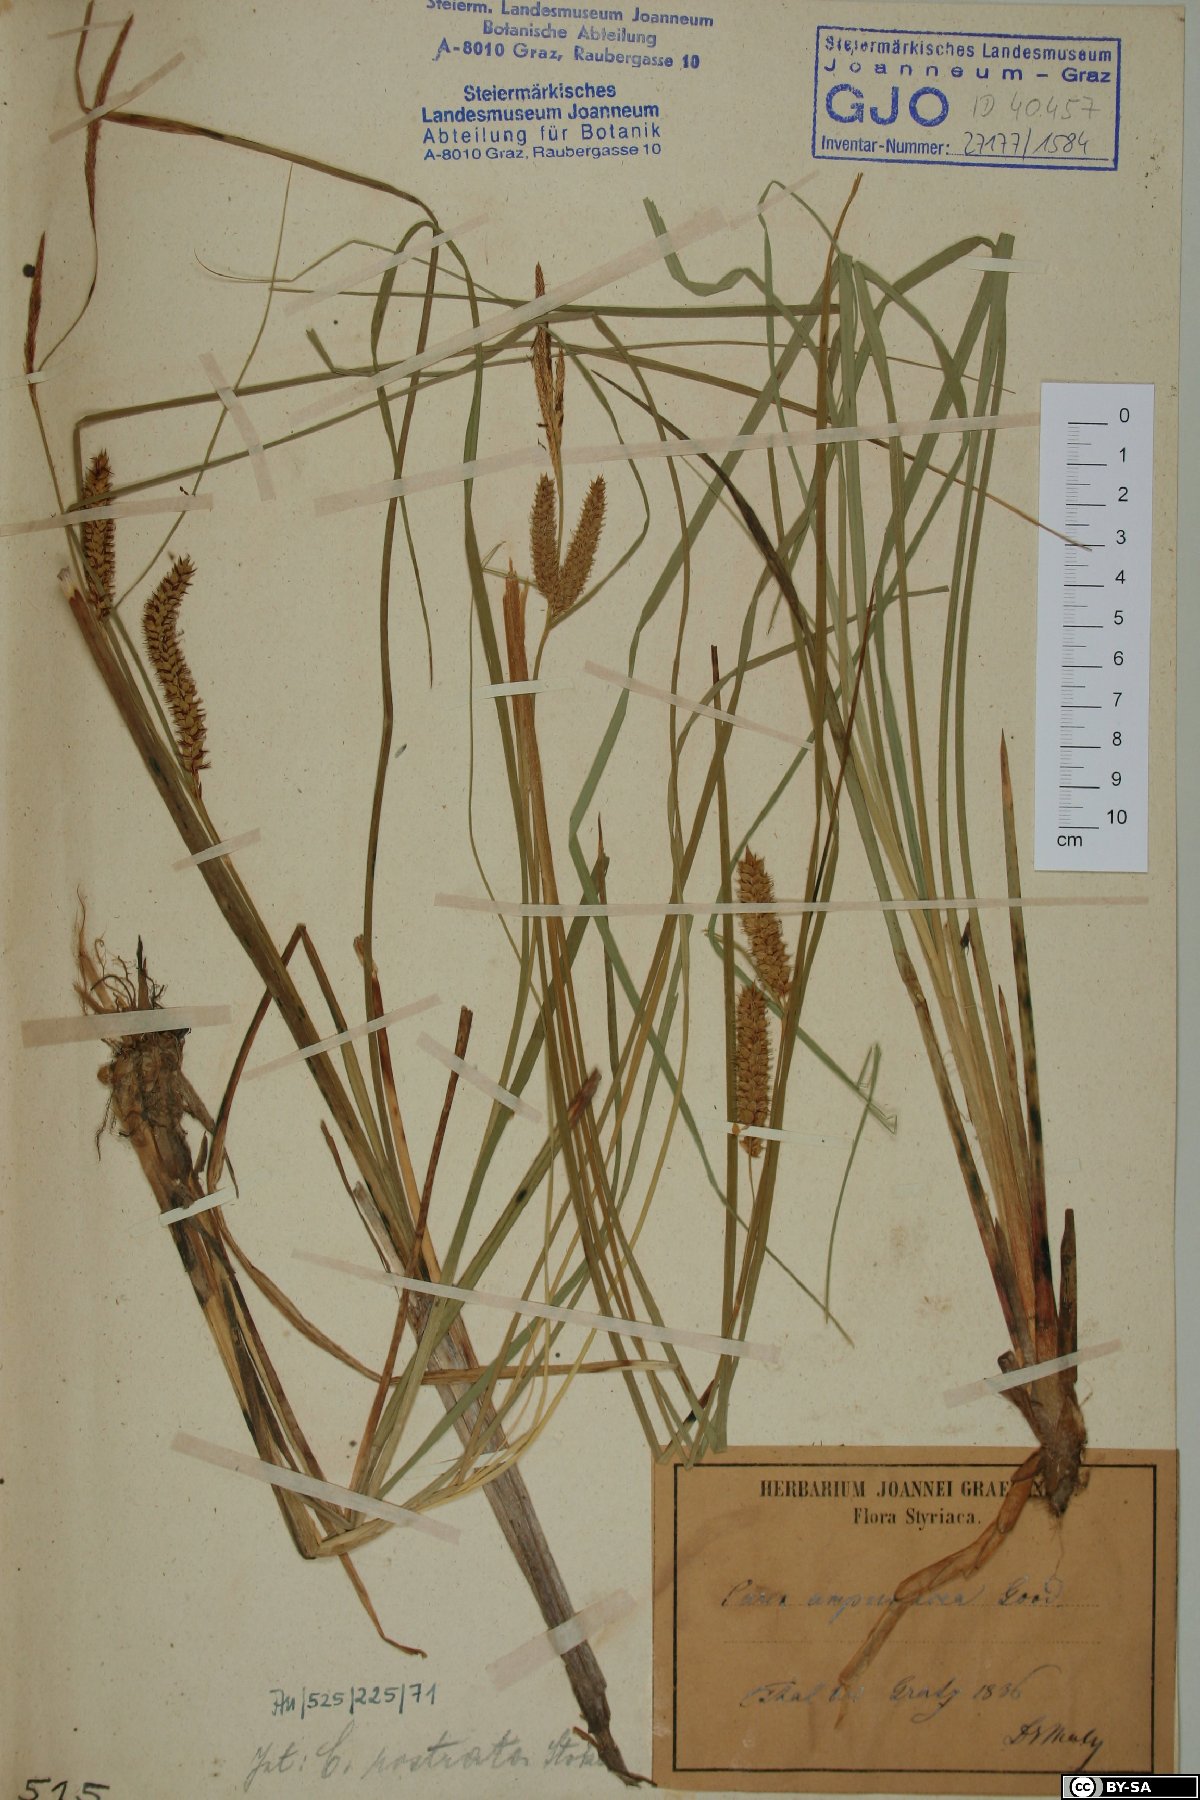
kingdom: Plantae
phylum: Tracheophyta
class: Liliopsida
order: Poales
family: Cyperaceae
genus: Carex
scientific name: Carex rostrata
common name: Bottle sedge
